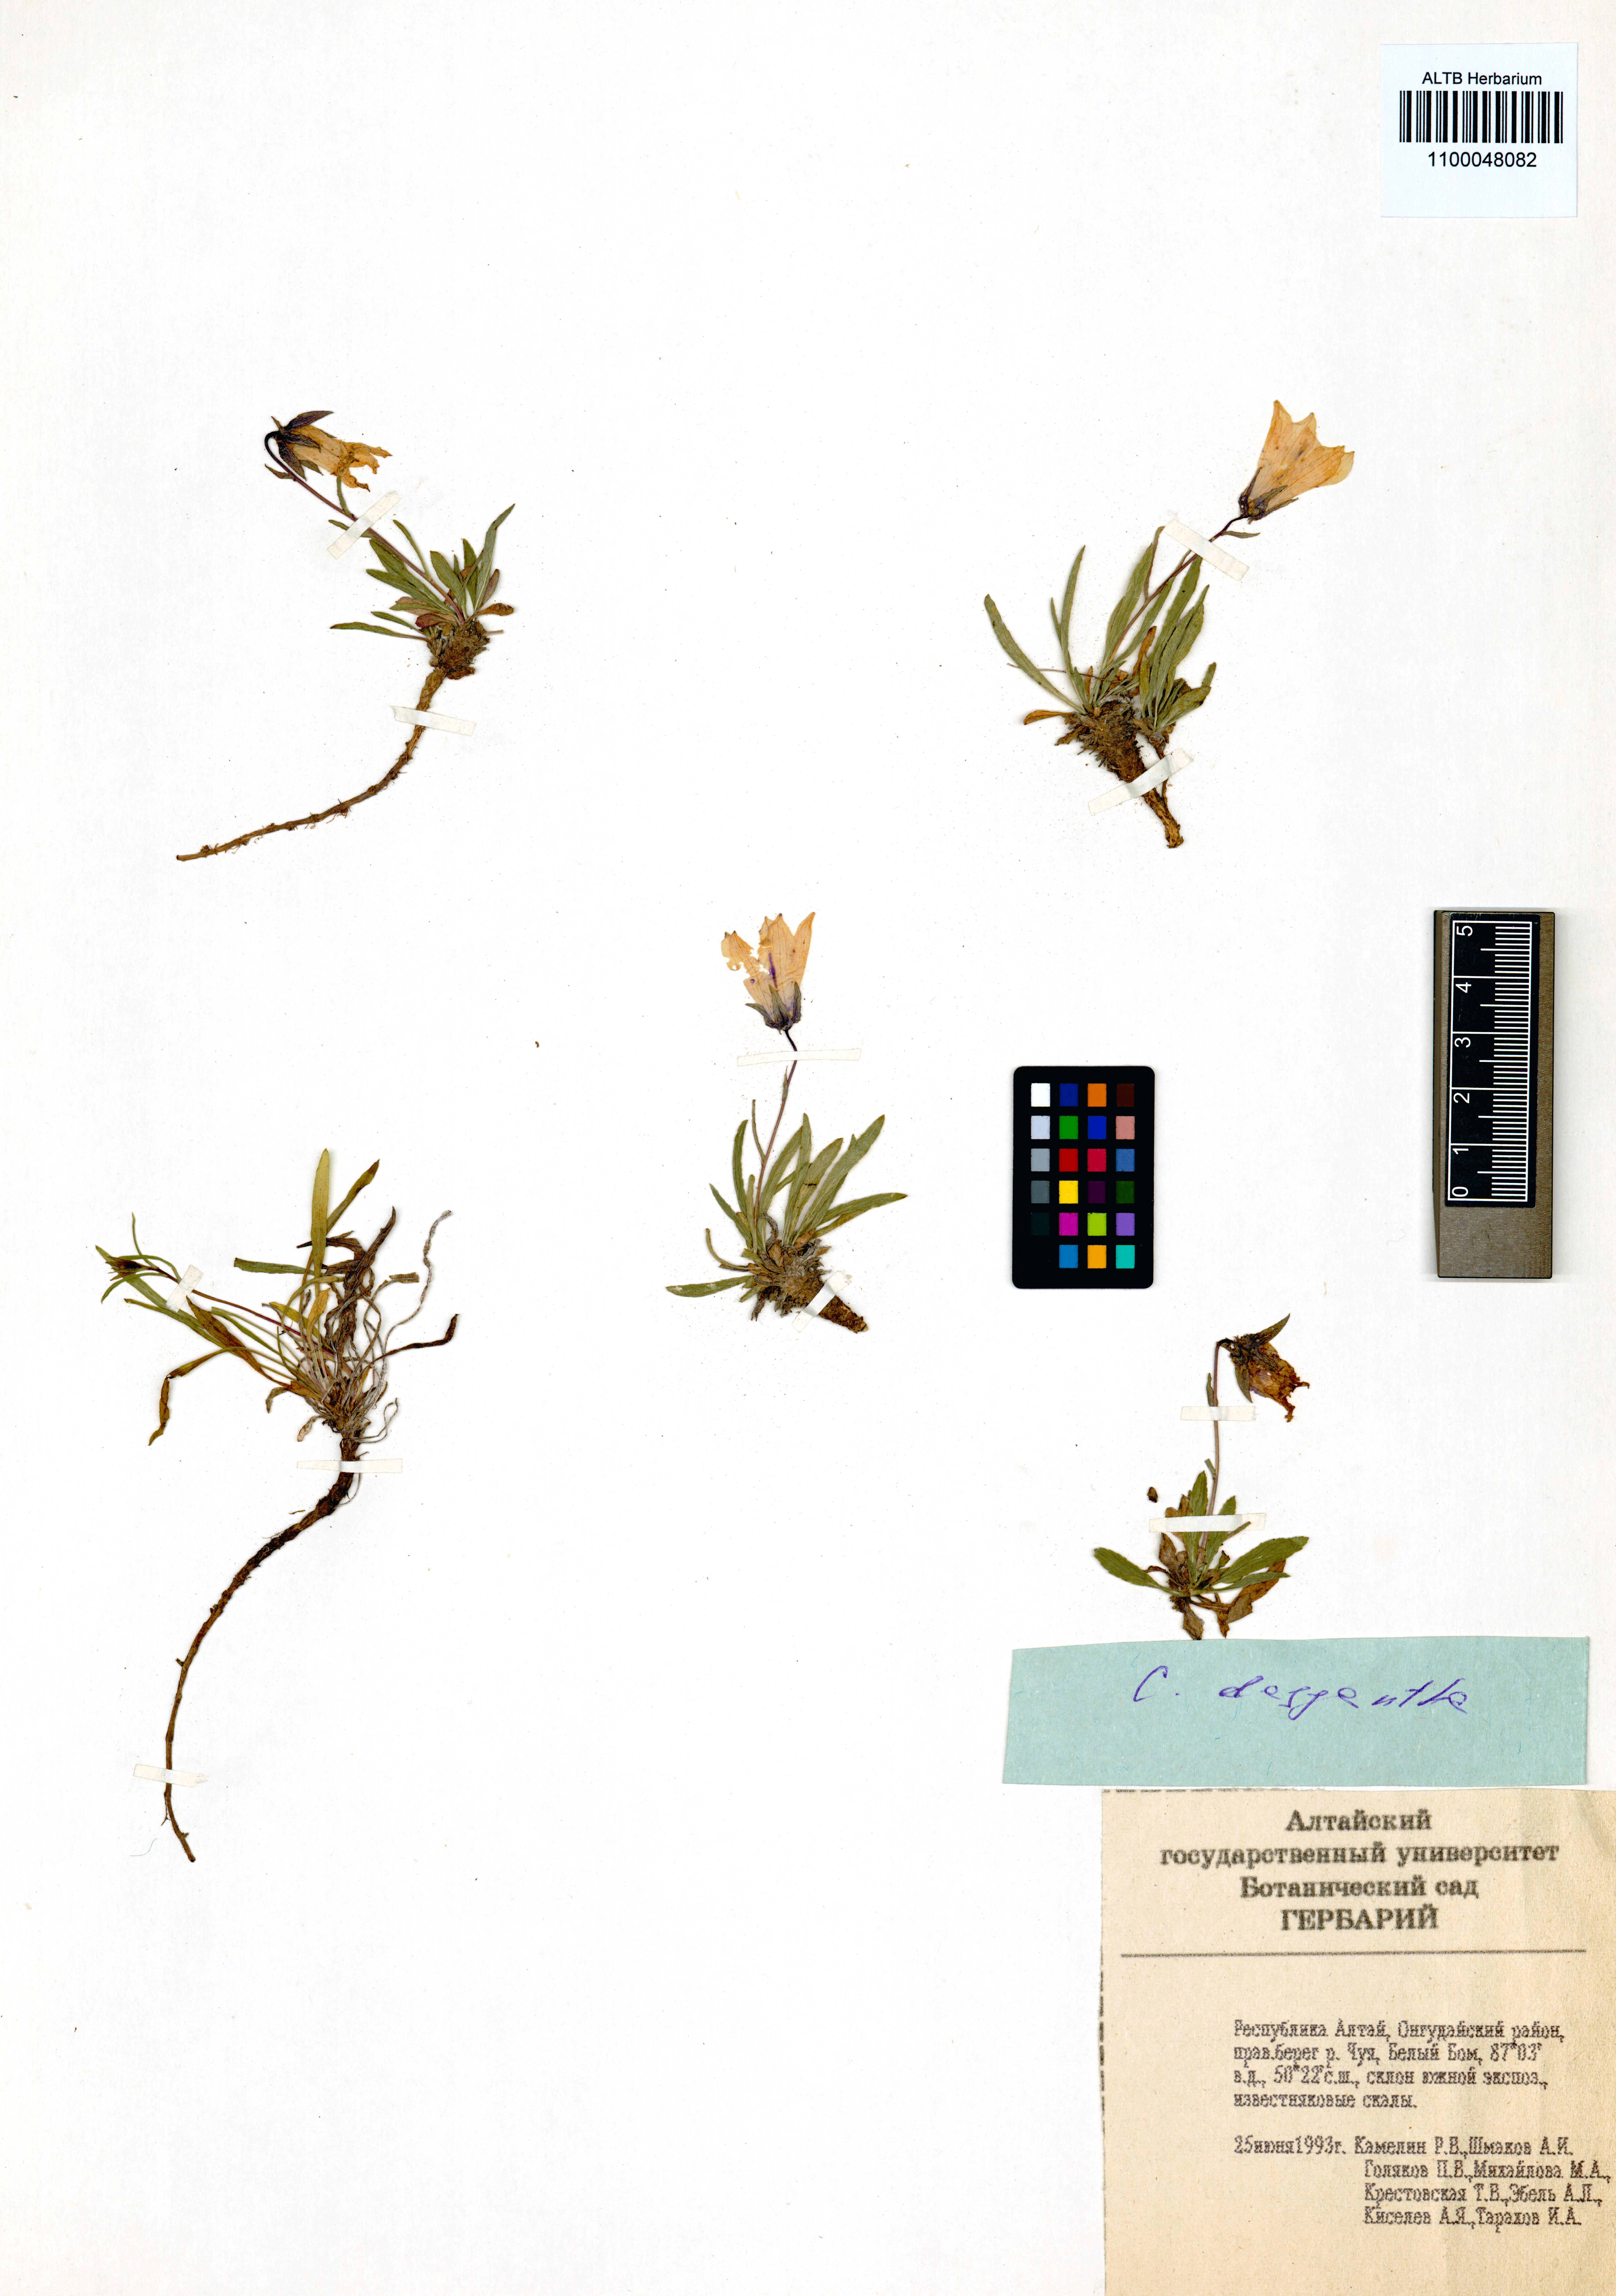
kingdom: Plantae
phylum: Tracheophyta
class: Magnoliopsida
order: Asterales
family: Campanulaceae
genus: Campanula
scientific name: Campanula dasyantha
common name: Hairyflower bellflower
